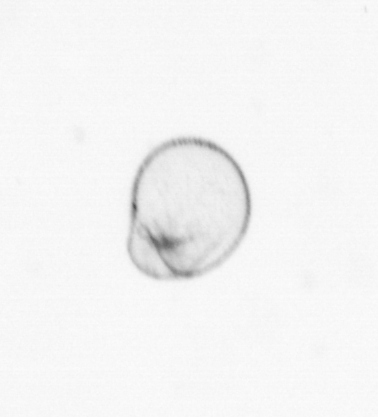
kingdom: Chromista
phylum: Myzozoa
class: Dinophyceae
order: Noctilucales
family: Noctilucaceae
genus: Noctiluca
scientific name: Noctiluca scintillans
